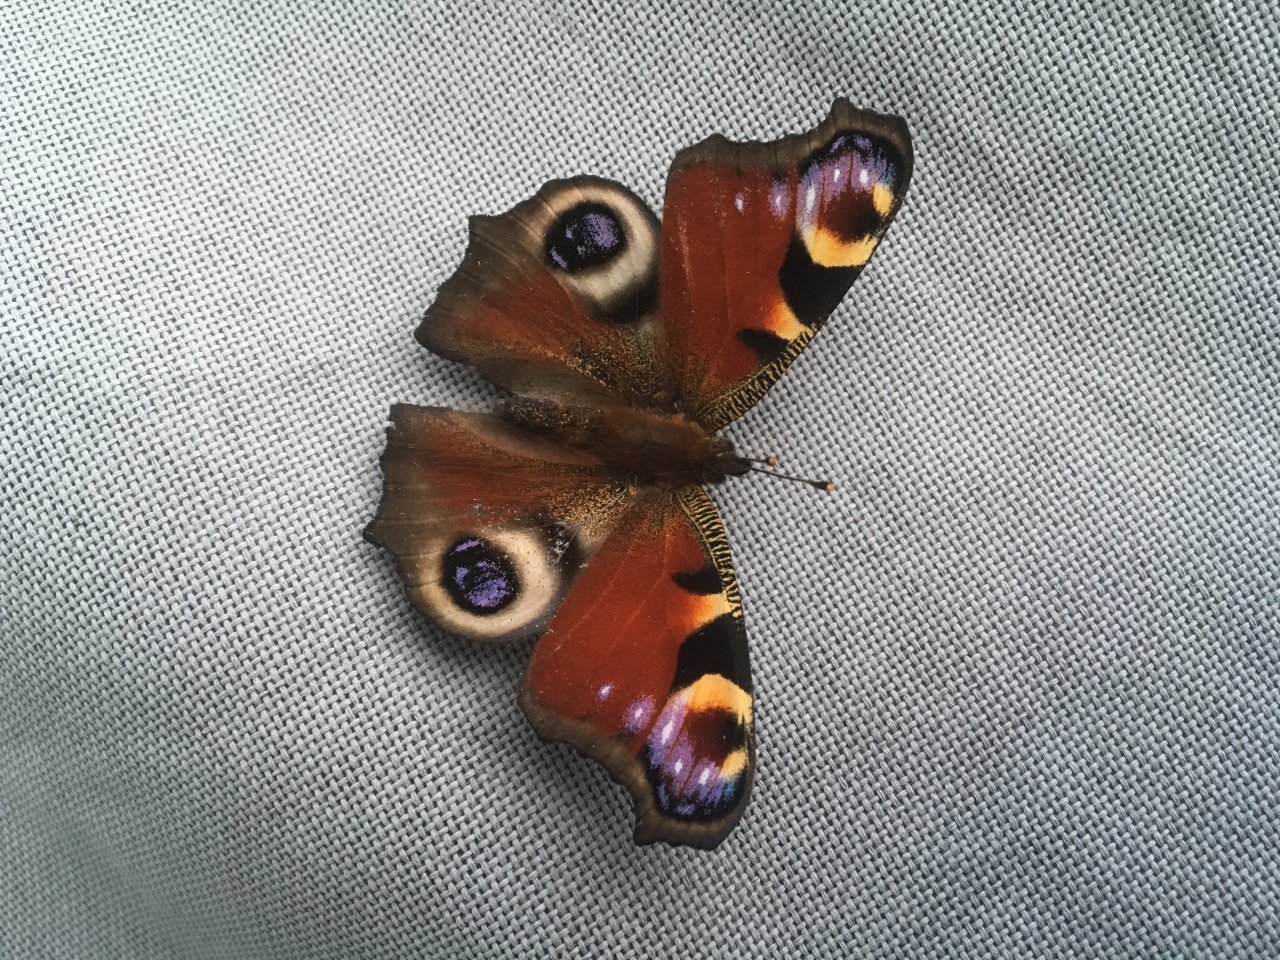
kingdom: Animalia
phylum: Arthropoda
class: Insecta
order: Lepidoptera
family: Nymphalidae
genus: Aglais
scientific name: Aglais io
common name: European Peacock
